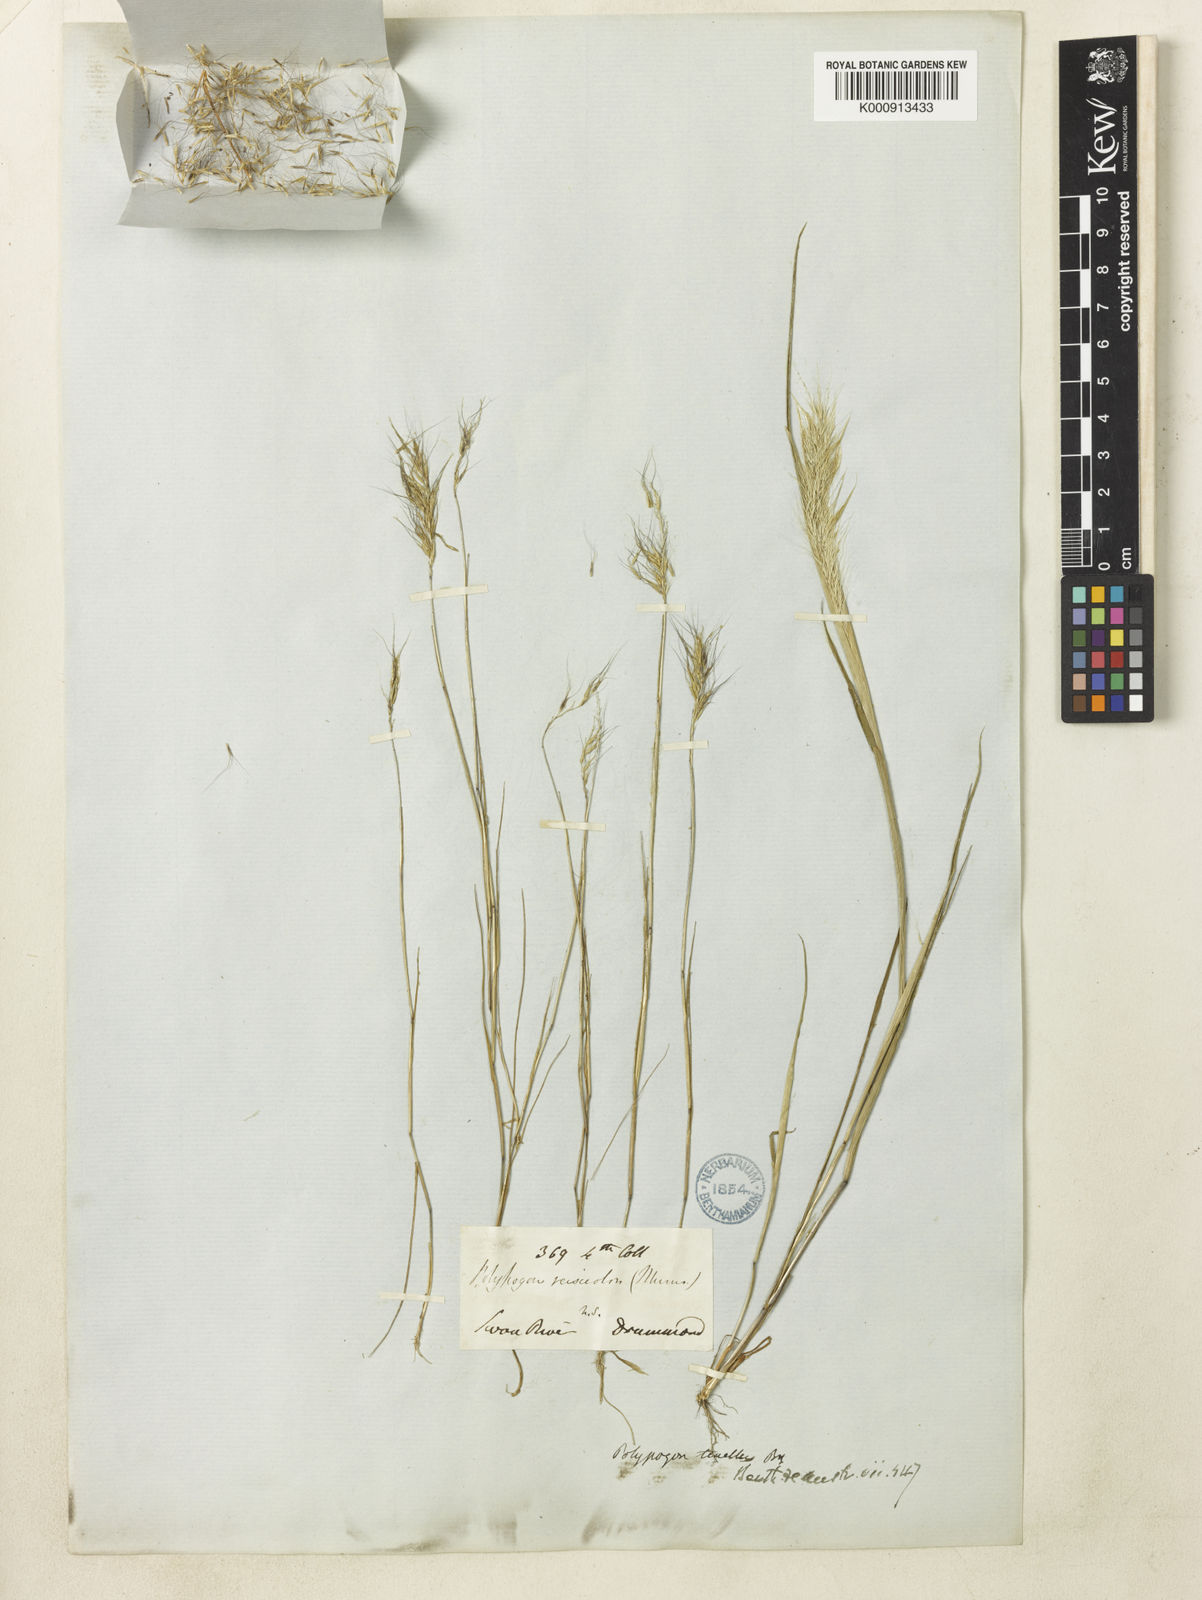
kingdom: Plantae
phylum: Tracheophyta
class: Liliopsida
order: Poales
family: Poaceae
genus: Polypogon
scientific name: Polypogon tenellus
